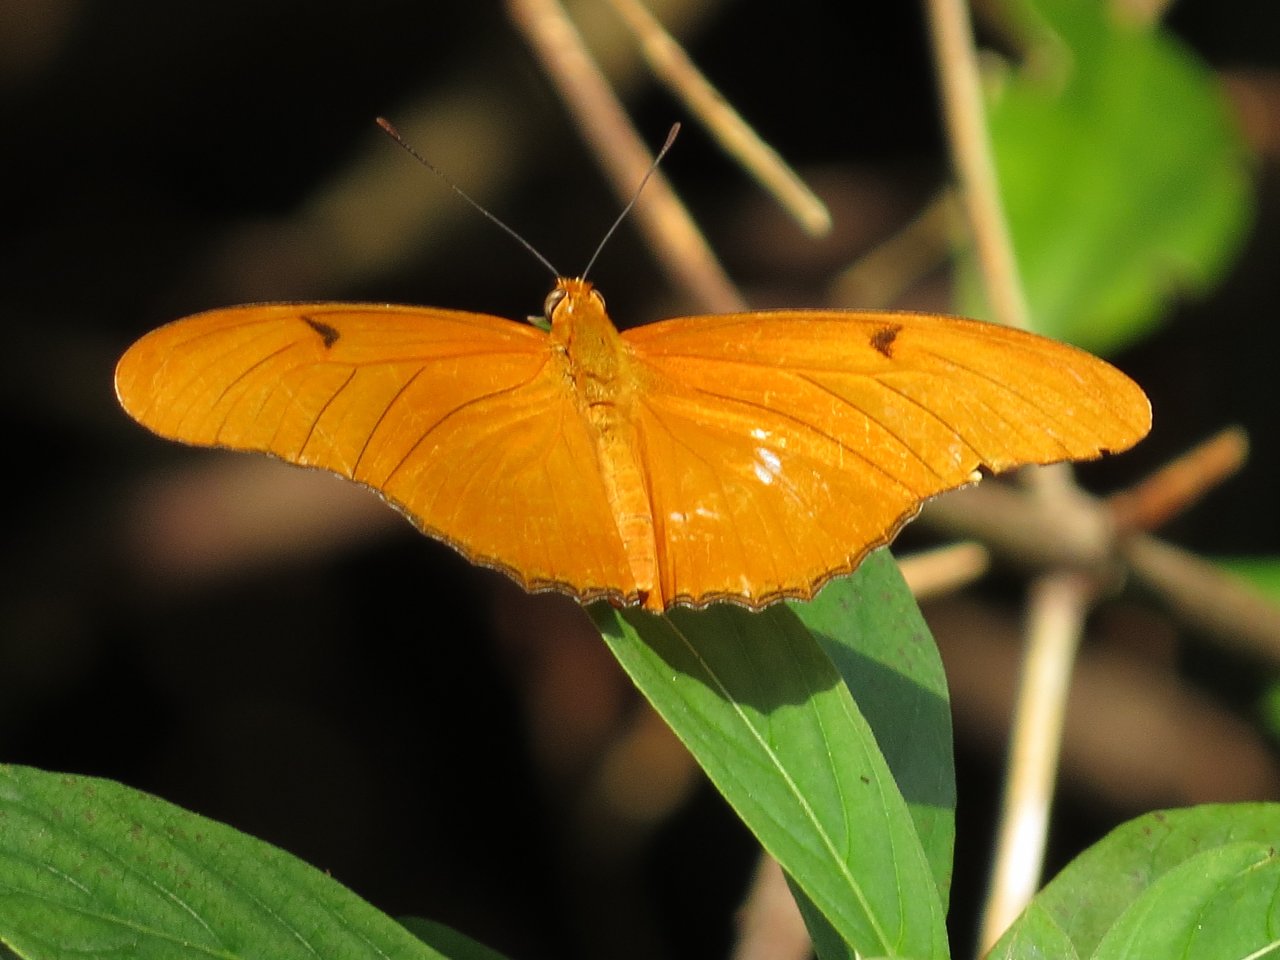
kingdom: Animalia
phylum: Arthropoda
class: Insecta
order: Lepidoptera
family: Nymphalidae
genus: Dryas
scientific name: Dryas iulia
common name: Julia
